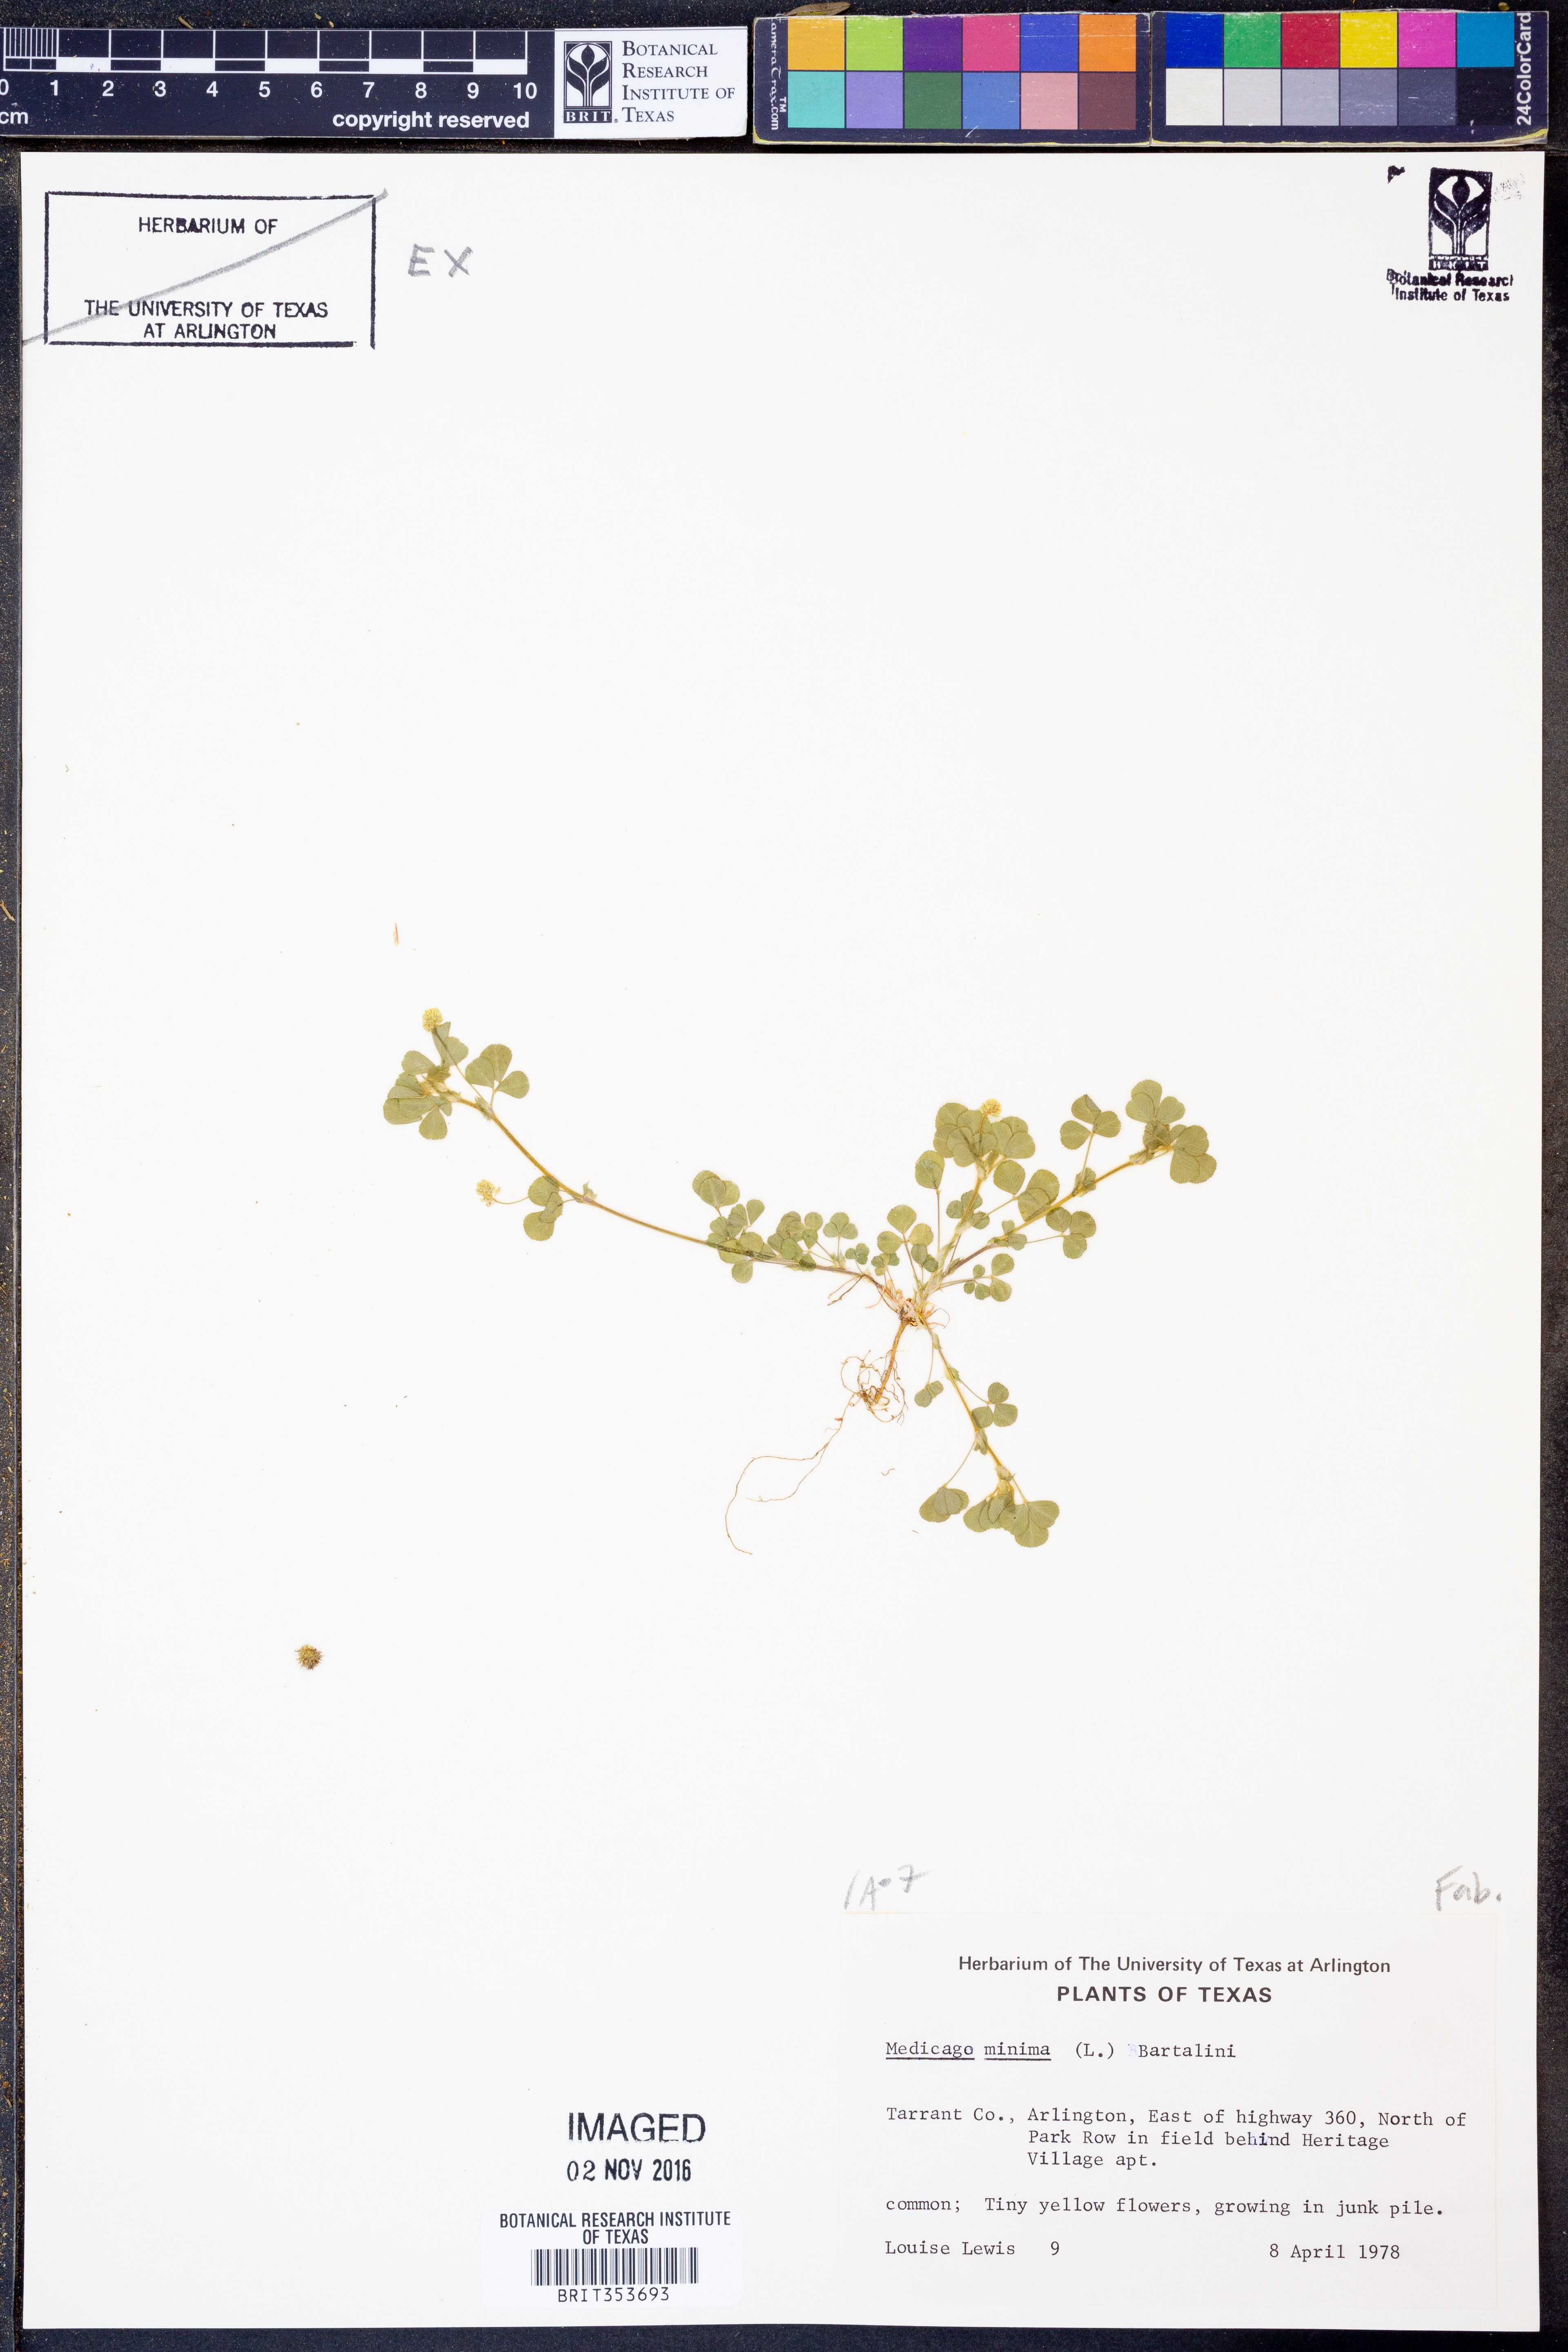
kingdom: Plantae
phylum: Tracheophyta
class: Magnoliopsida
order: Fabales
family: Fabaceae
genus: Medicago
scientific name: Medicago minima
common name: Little bur-clover
